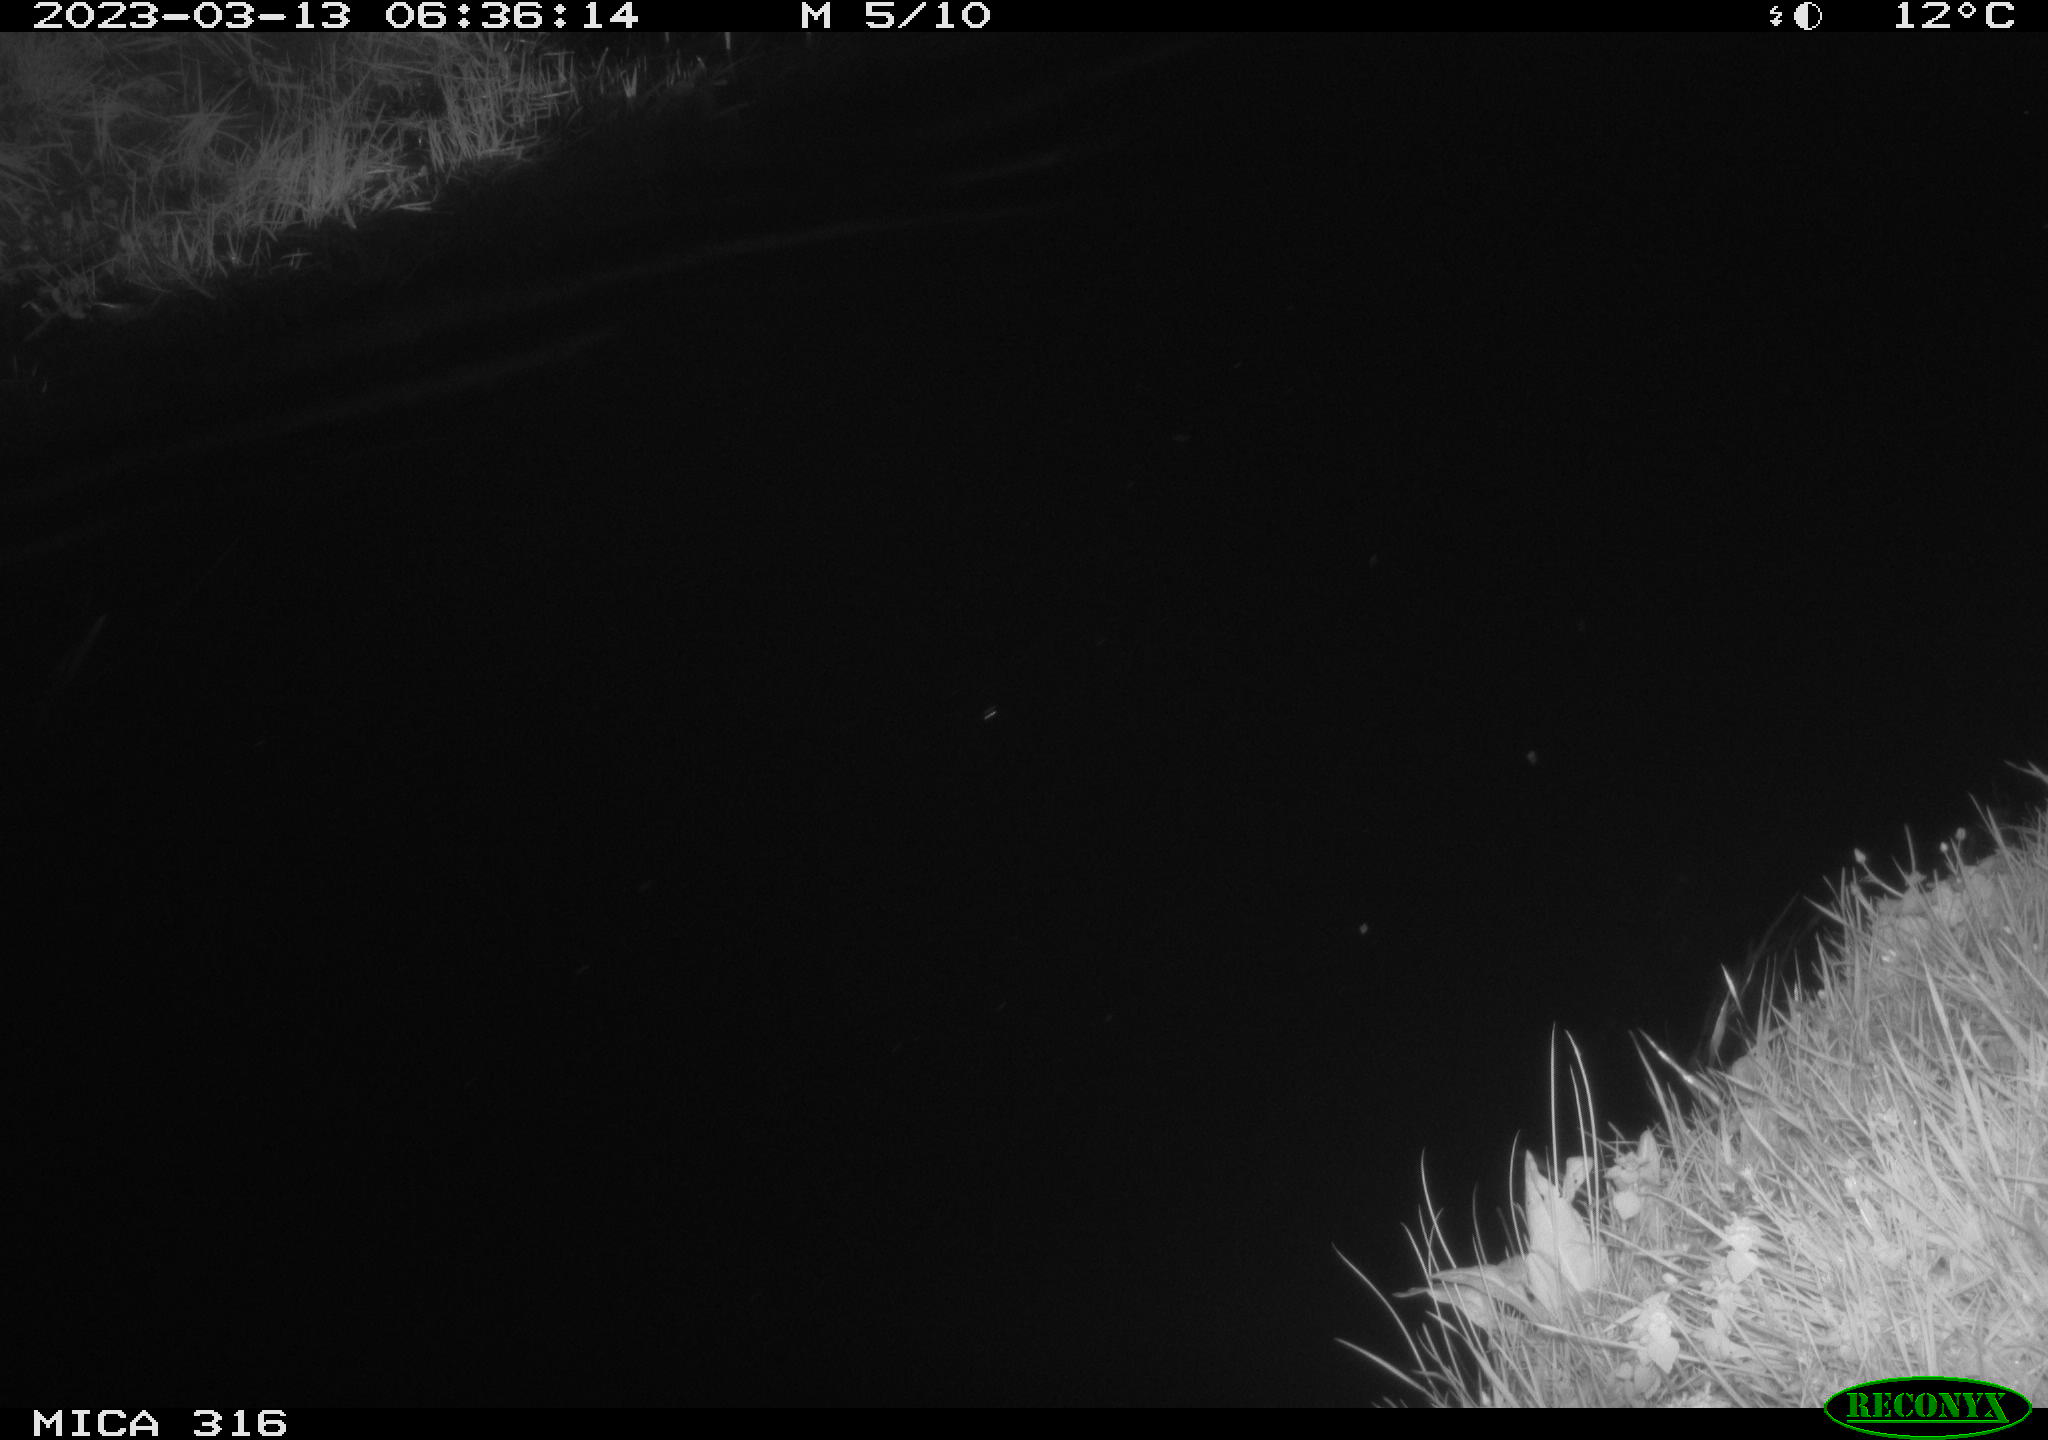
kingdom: Animalia
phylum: Chordata
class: Aves
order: Gruiformes
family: Rallidae
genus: Gallinula
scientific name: Gallinula chloropus
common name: Common moorhen
